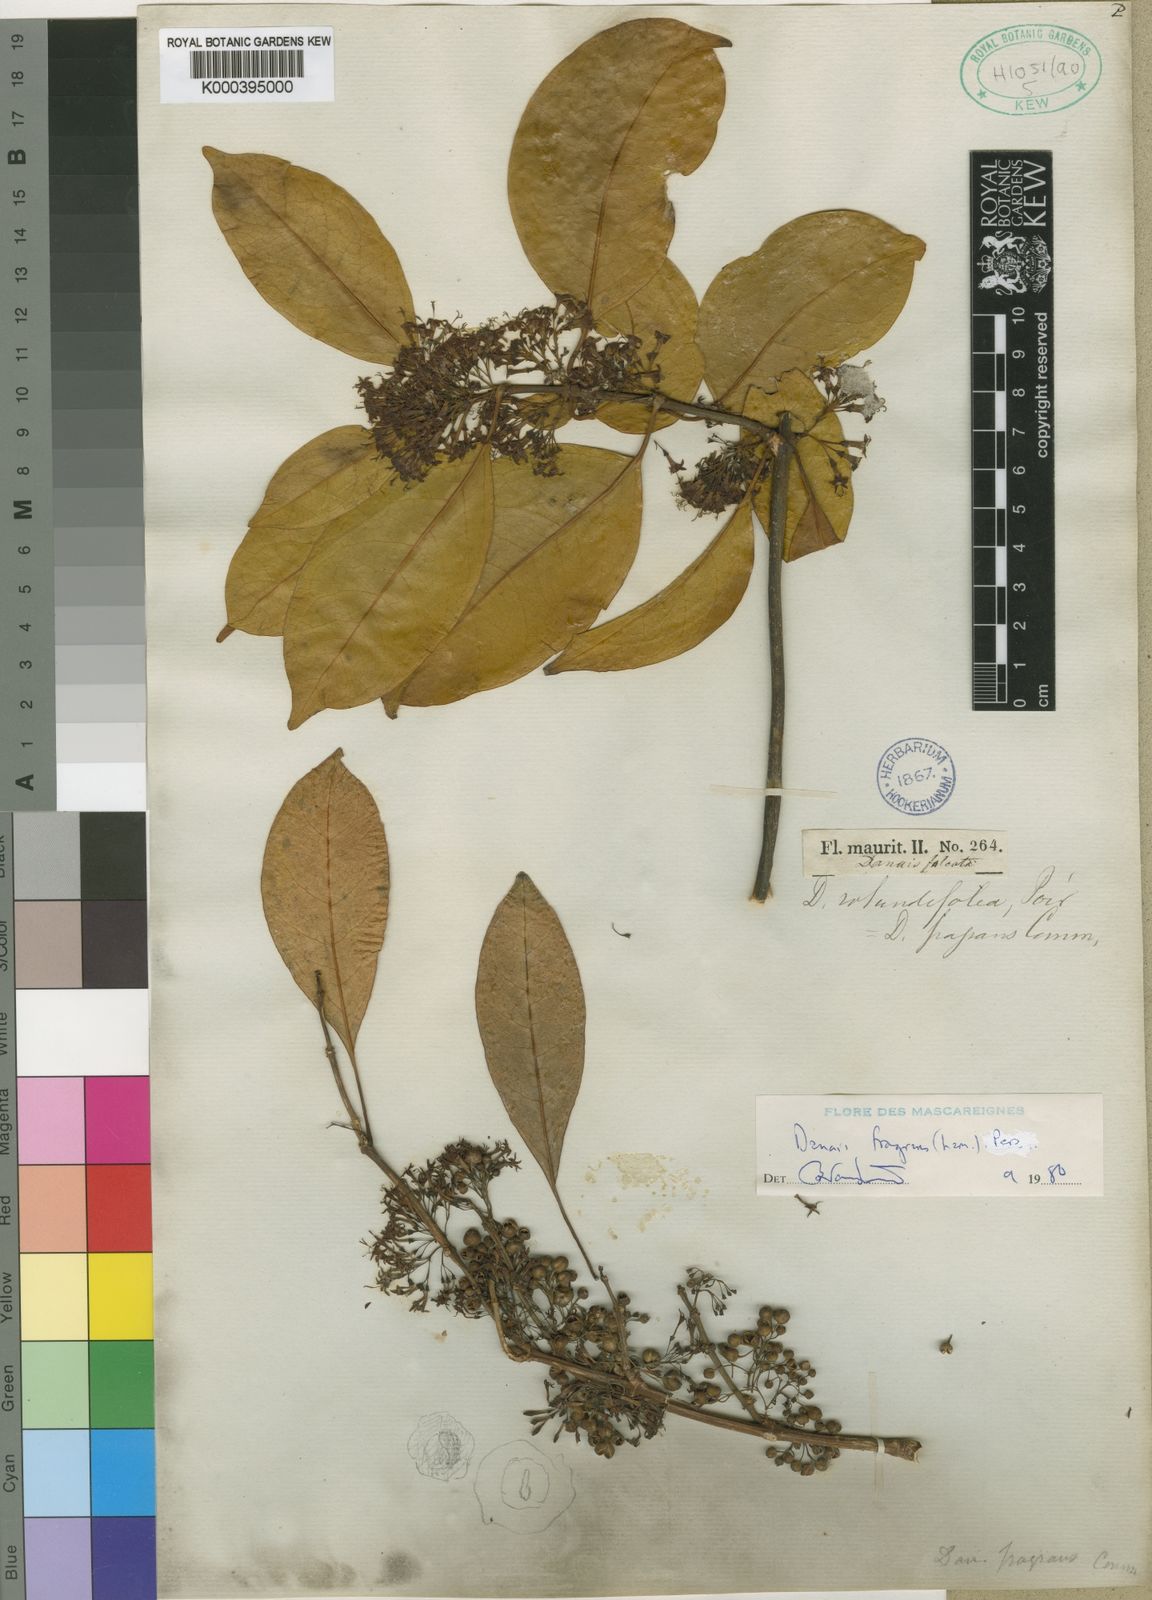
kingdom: Plantae
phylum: Tracheophyta
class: Magnoliopsida
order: Gentianales
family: Rubiaceae
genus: Danais
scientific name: Danais fragrans
